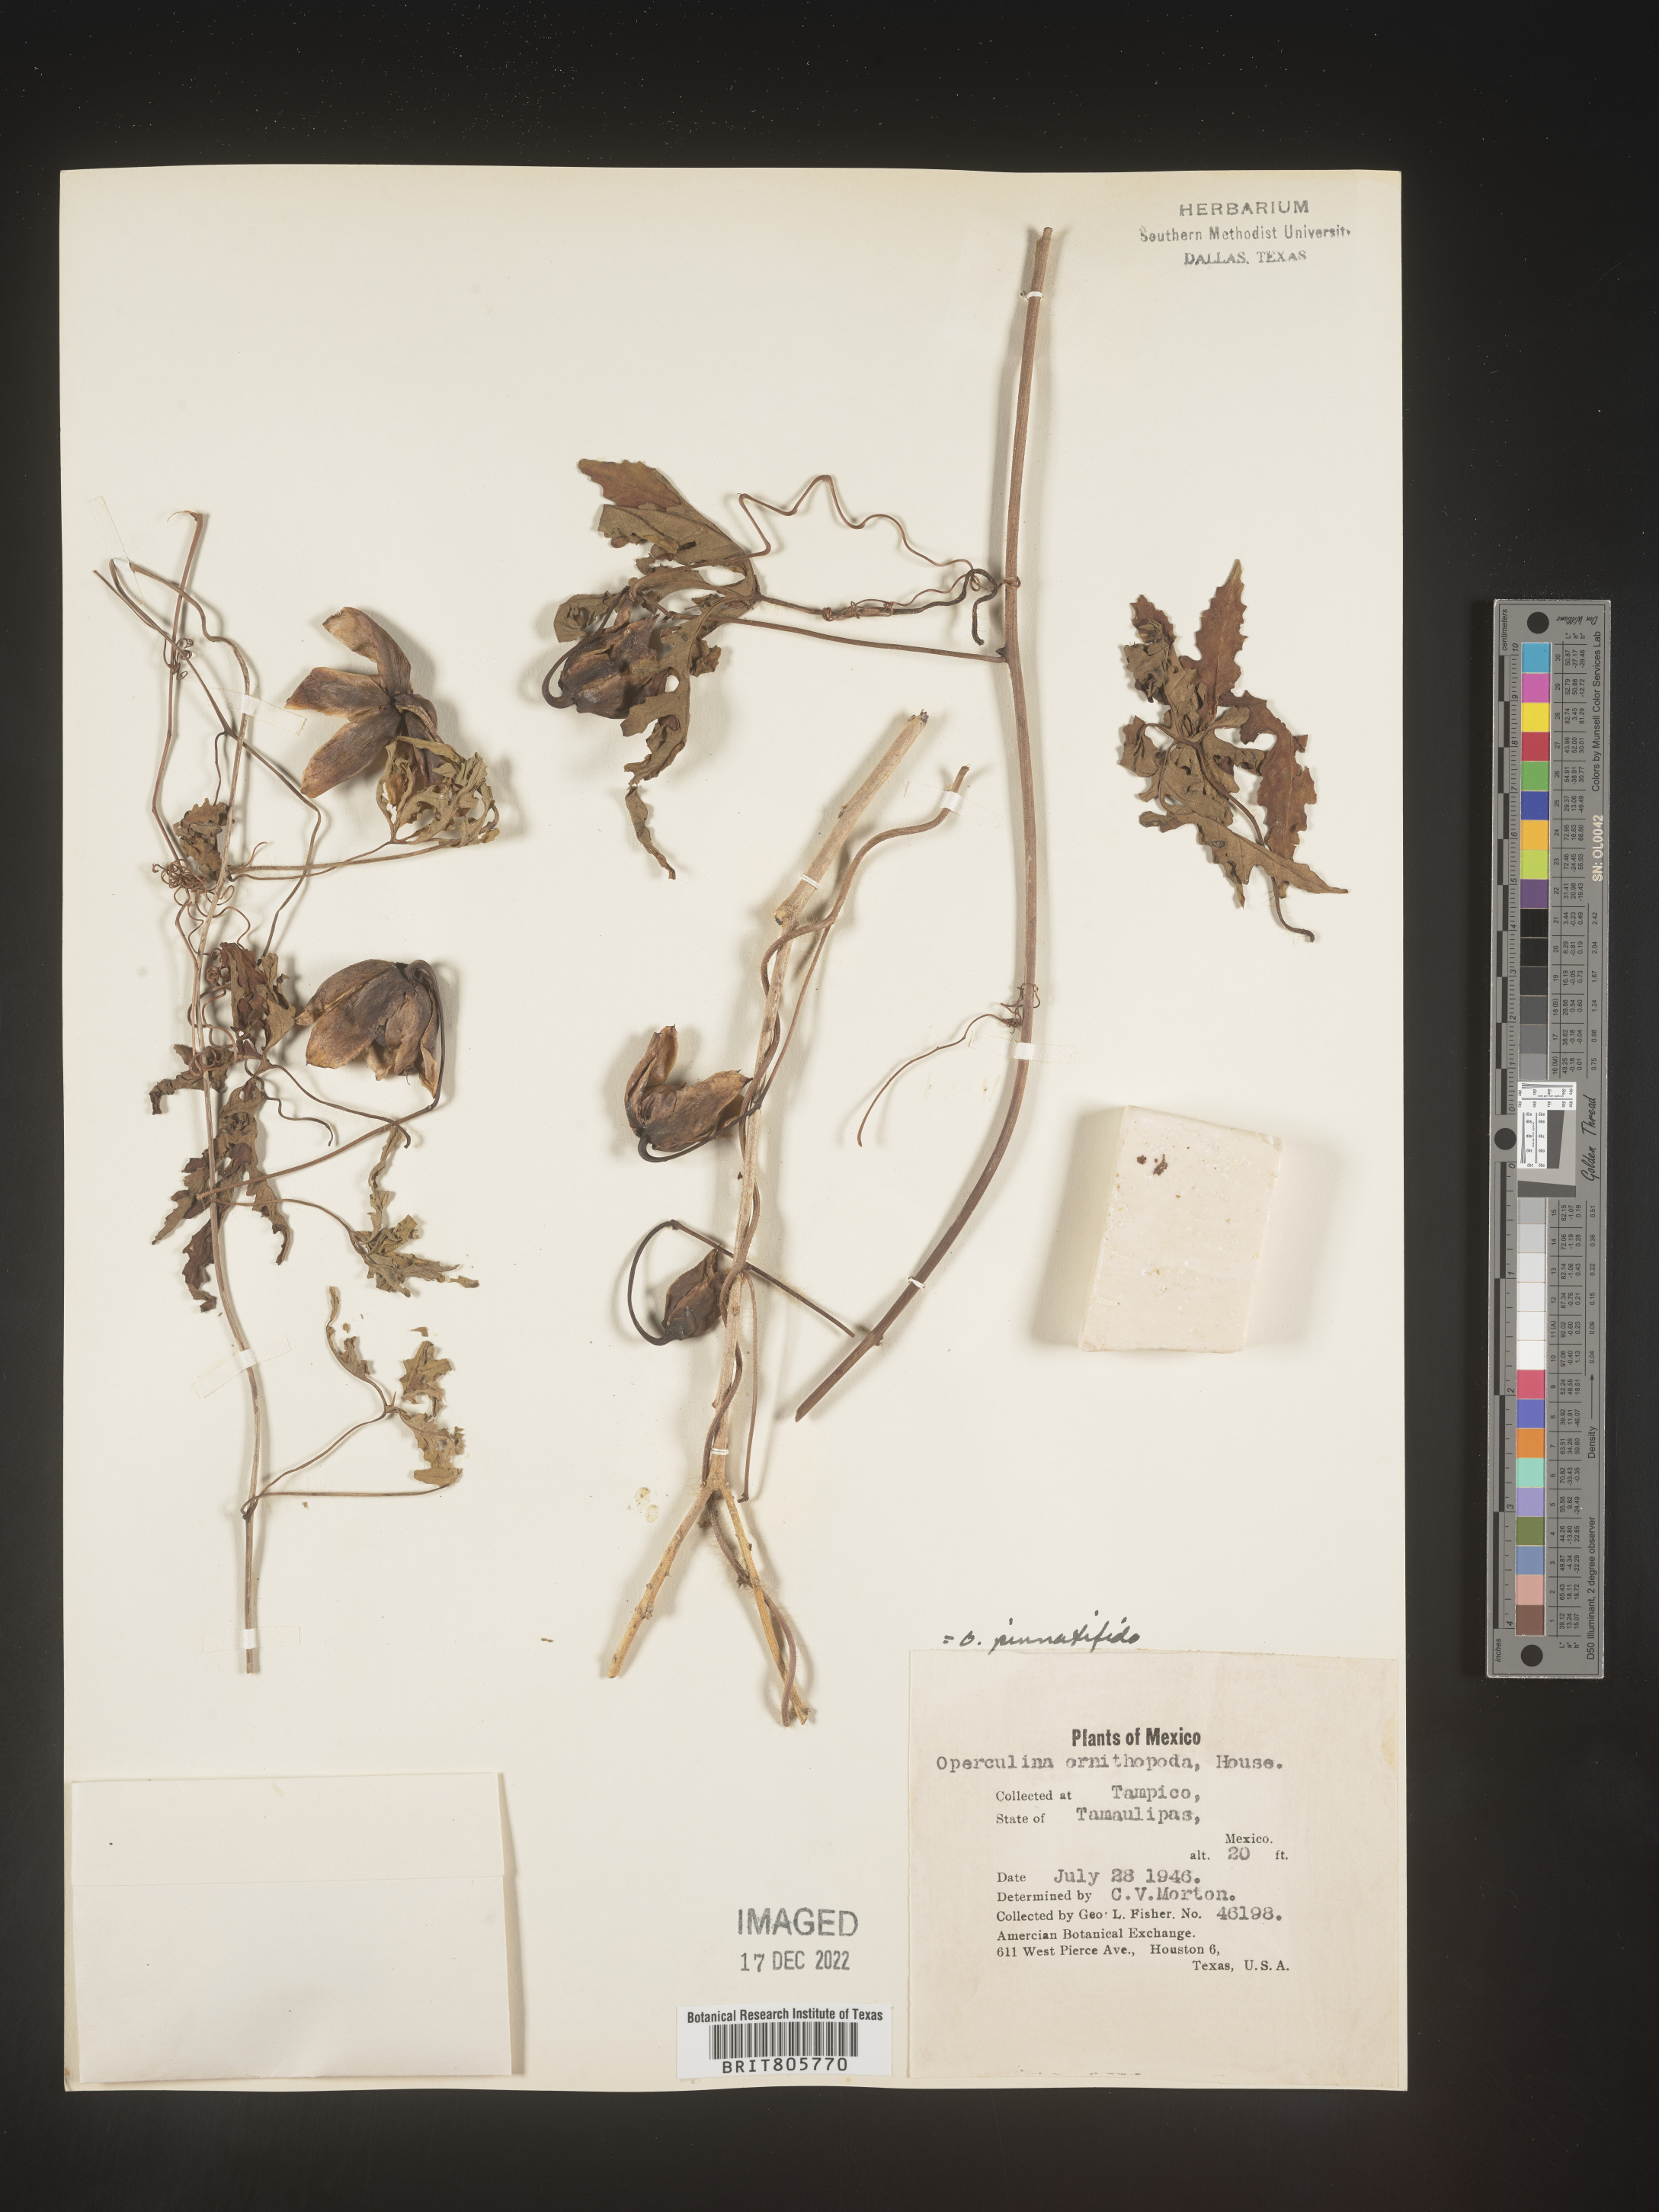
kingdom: Plantae
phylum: Tracheophyta
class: Magnoliopsida
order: Solanales
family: Convolvulaceae
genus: Operculina
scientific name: Operculina
